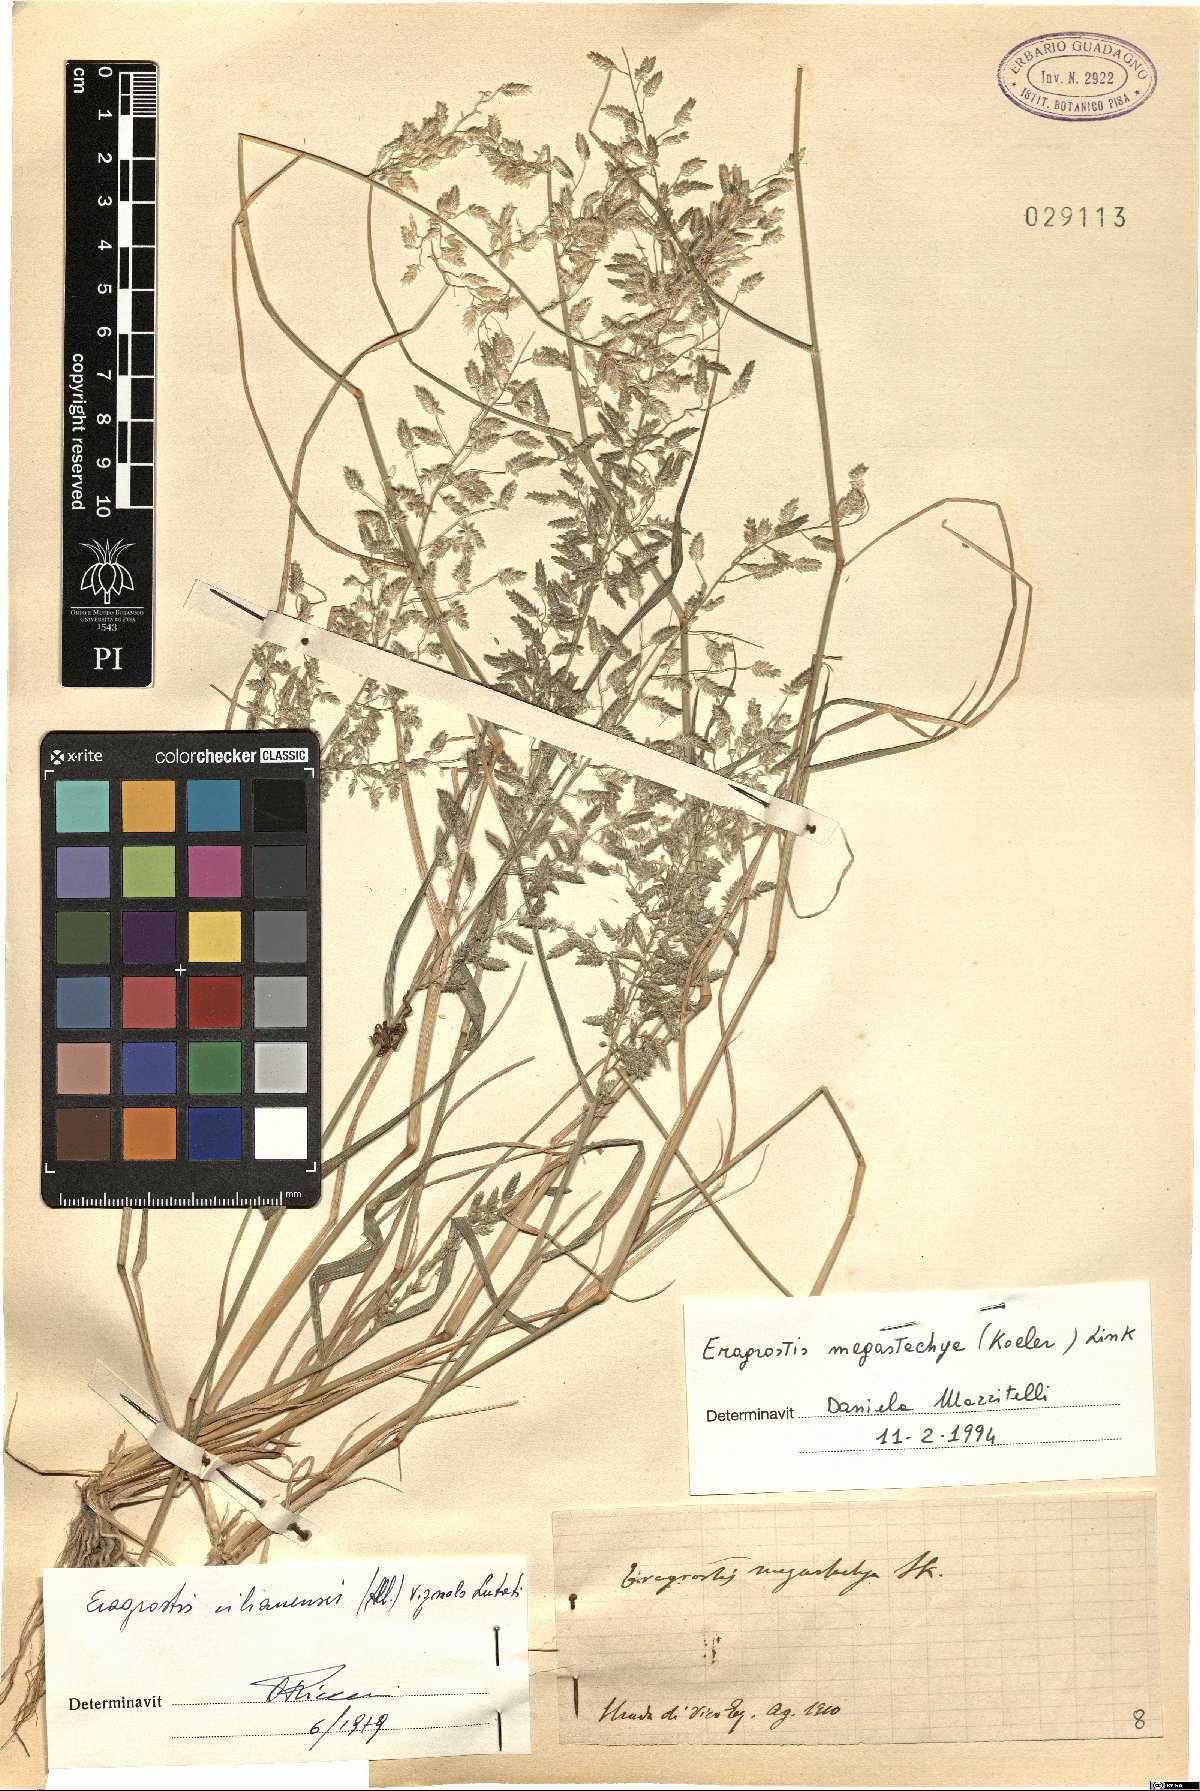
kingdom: Plantae
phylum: Tracheophyta
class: Liliopsida
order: Poales
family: Poaceae
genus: Eragrostis
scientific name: Eragrostis cilianensis
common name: Stinkgrass
